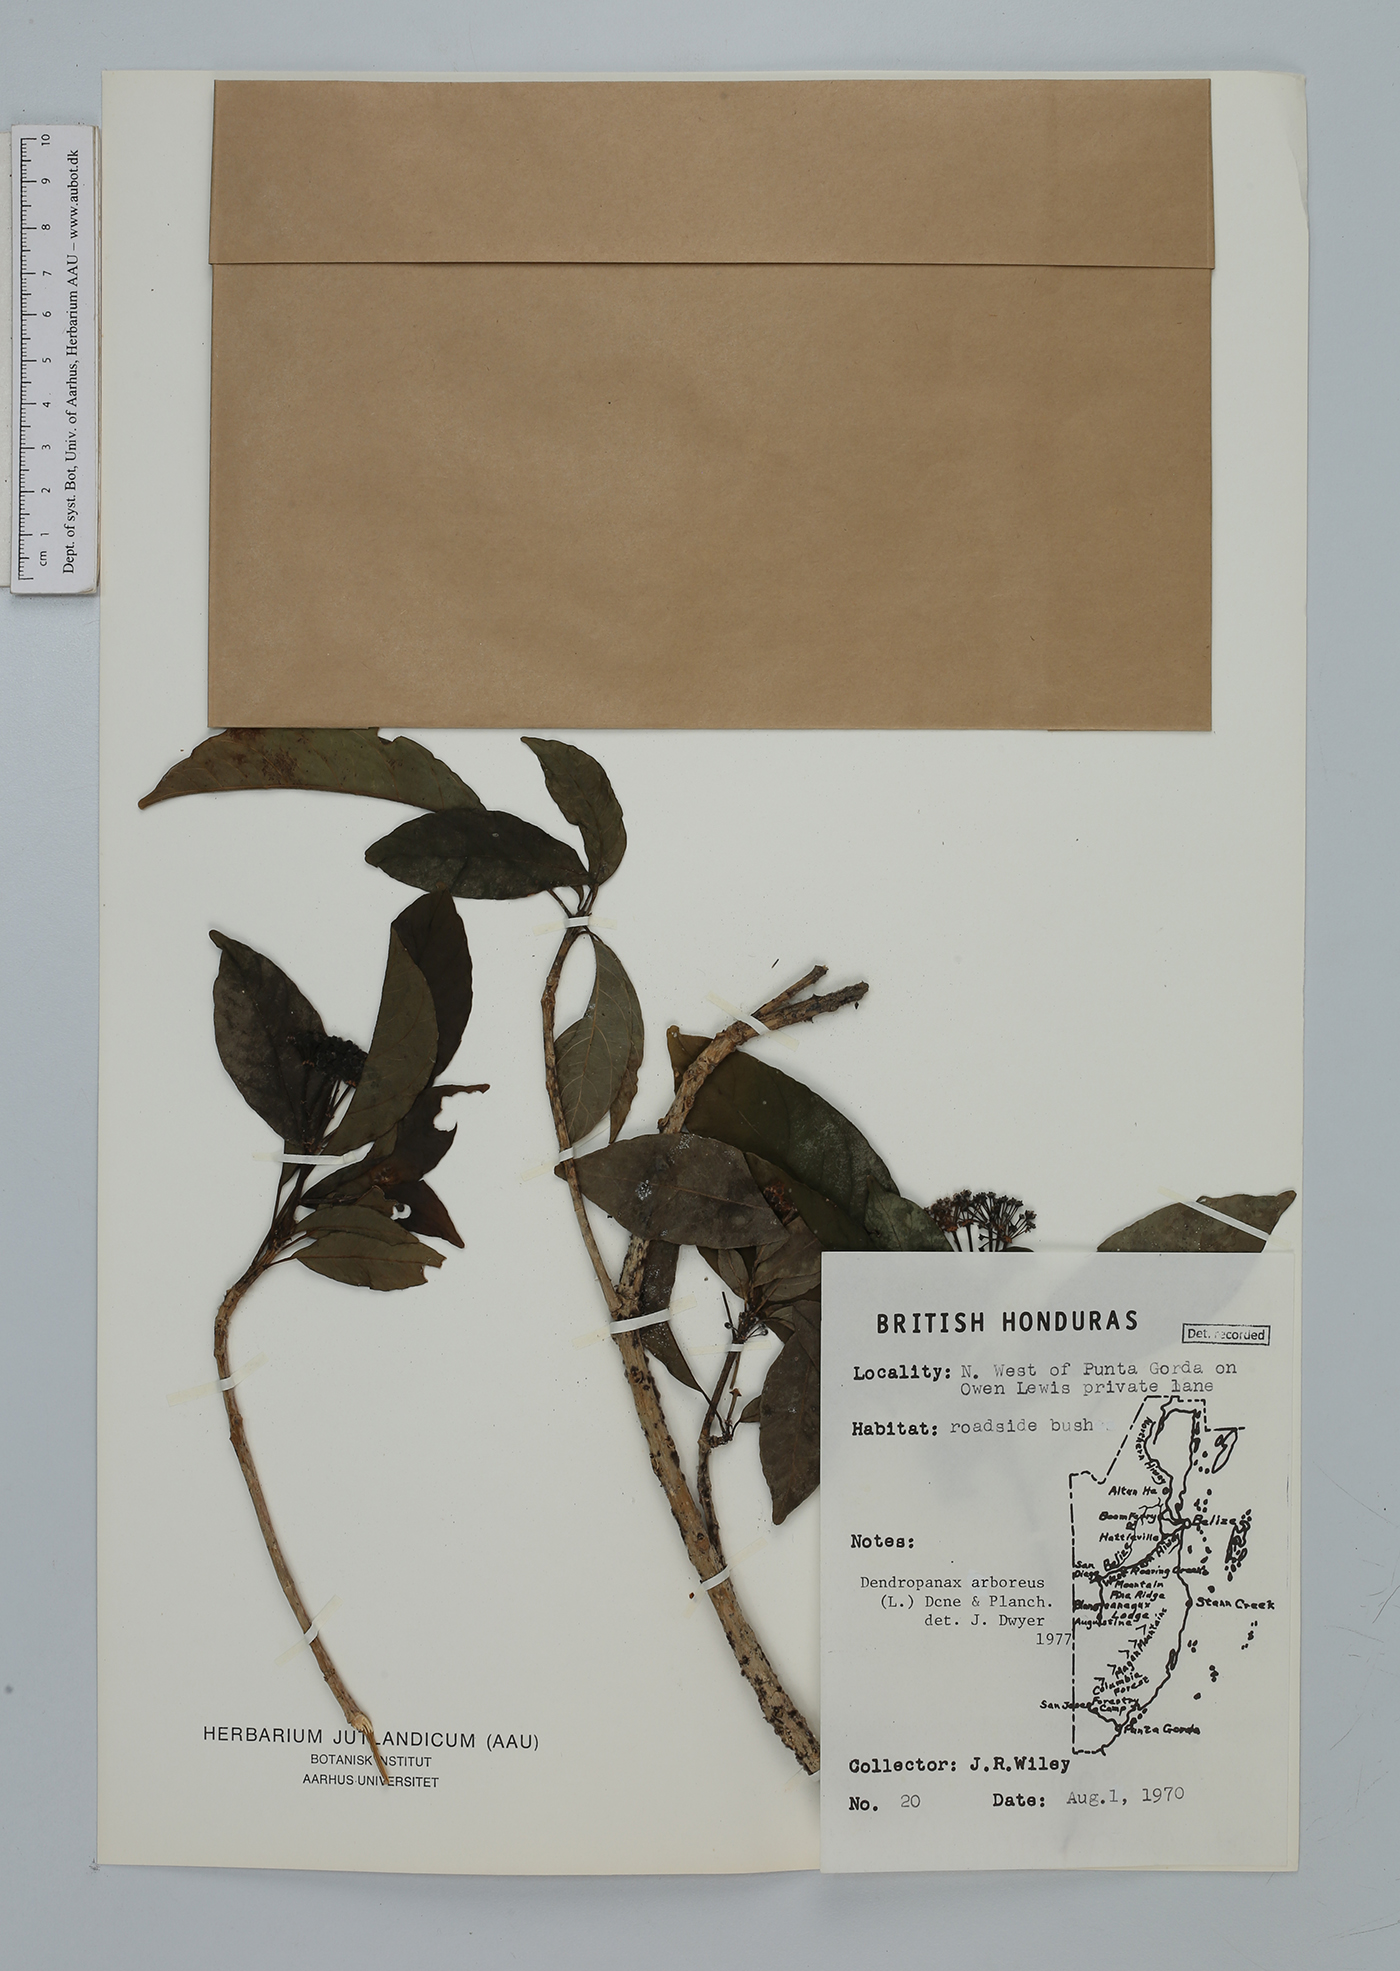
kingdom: Plantae
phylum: Tracheophyta
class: Magnoliopsida
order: Apiales
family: Araliaceae
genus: Dendropanax
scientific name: Dendropanax arboreus
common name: Potato-wood
